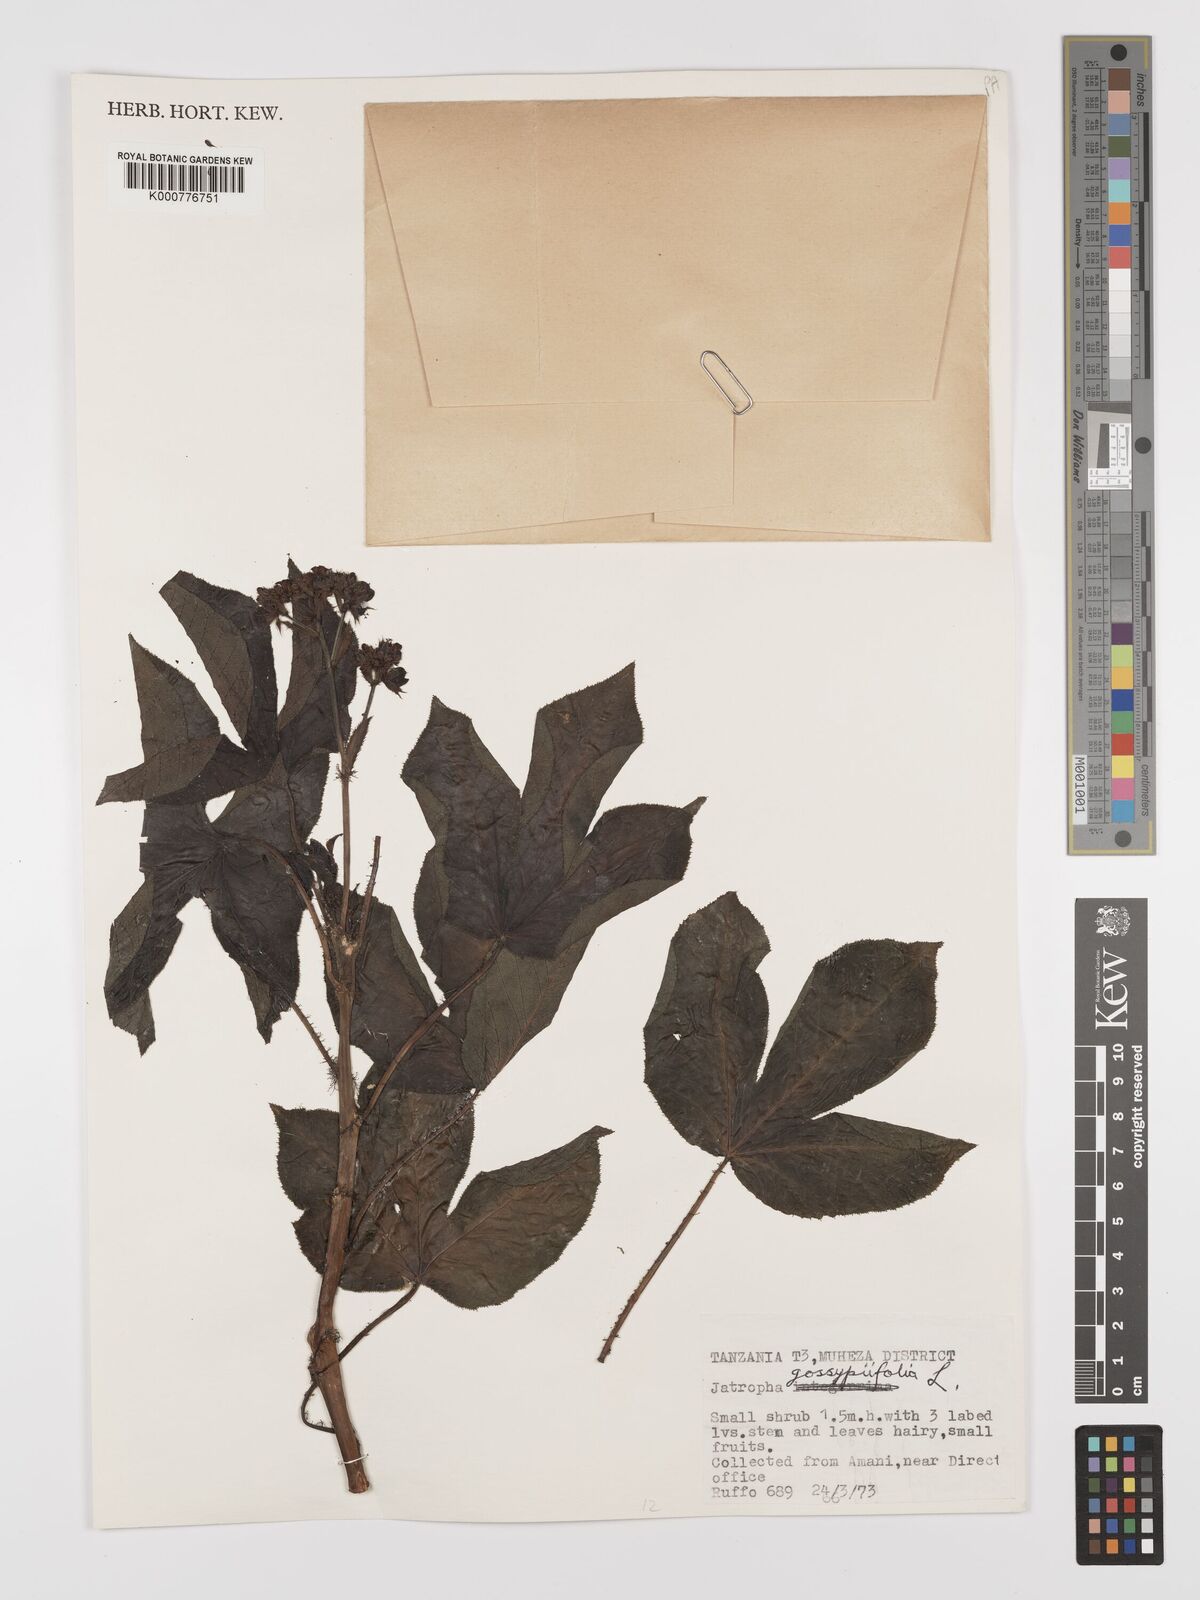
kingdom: Plantae
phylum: Tracheophyta
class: Magnoliopsida
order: Malpighiales
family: Euphorbiaceae
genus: Jatropha
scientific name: Jatropha gossypiifolia
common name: Bellyache bush
